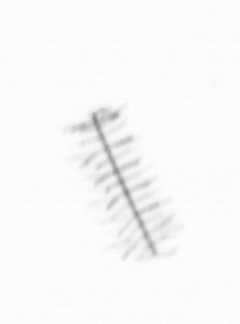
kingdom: Chromista
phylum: Ochrophyta
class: Bacillariophyceae
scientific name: Bacillariophyceae
